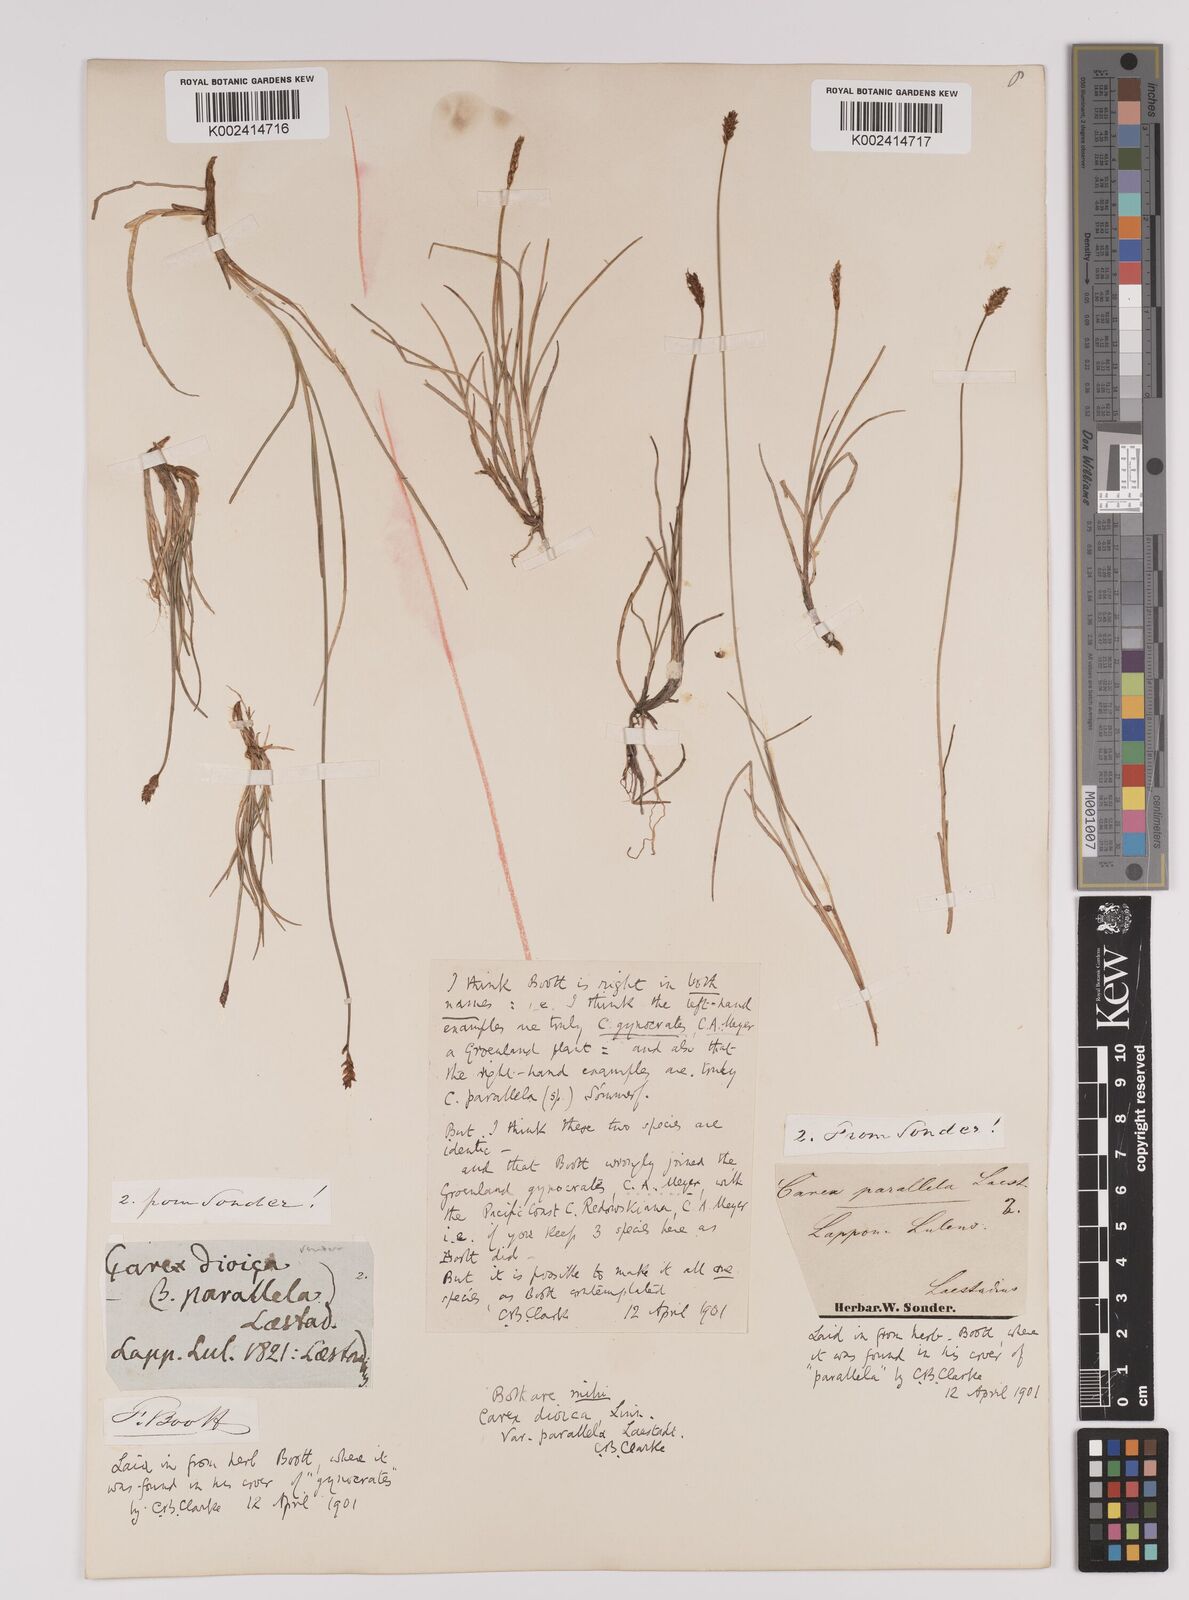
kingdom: Plantae
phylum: Tracheophyta
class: Liliopsida
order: Poales
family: Cyperaceae
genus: Carex
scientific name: Carex parallela
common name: Parallel sedge
